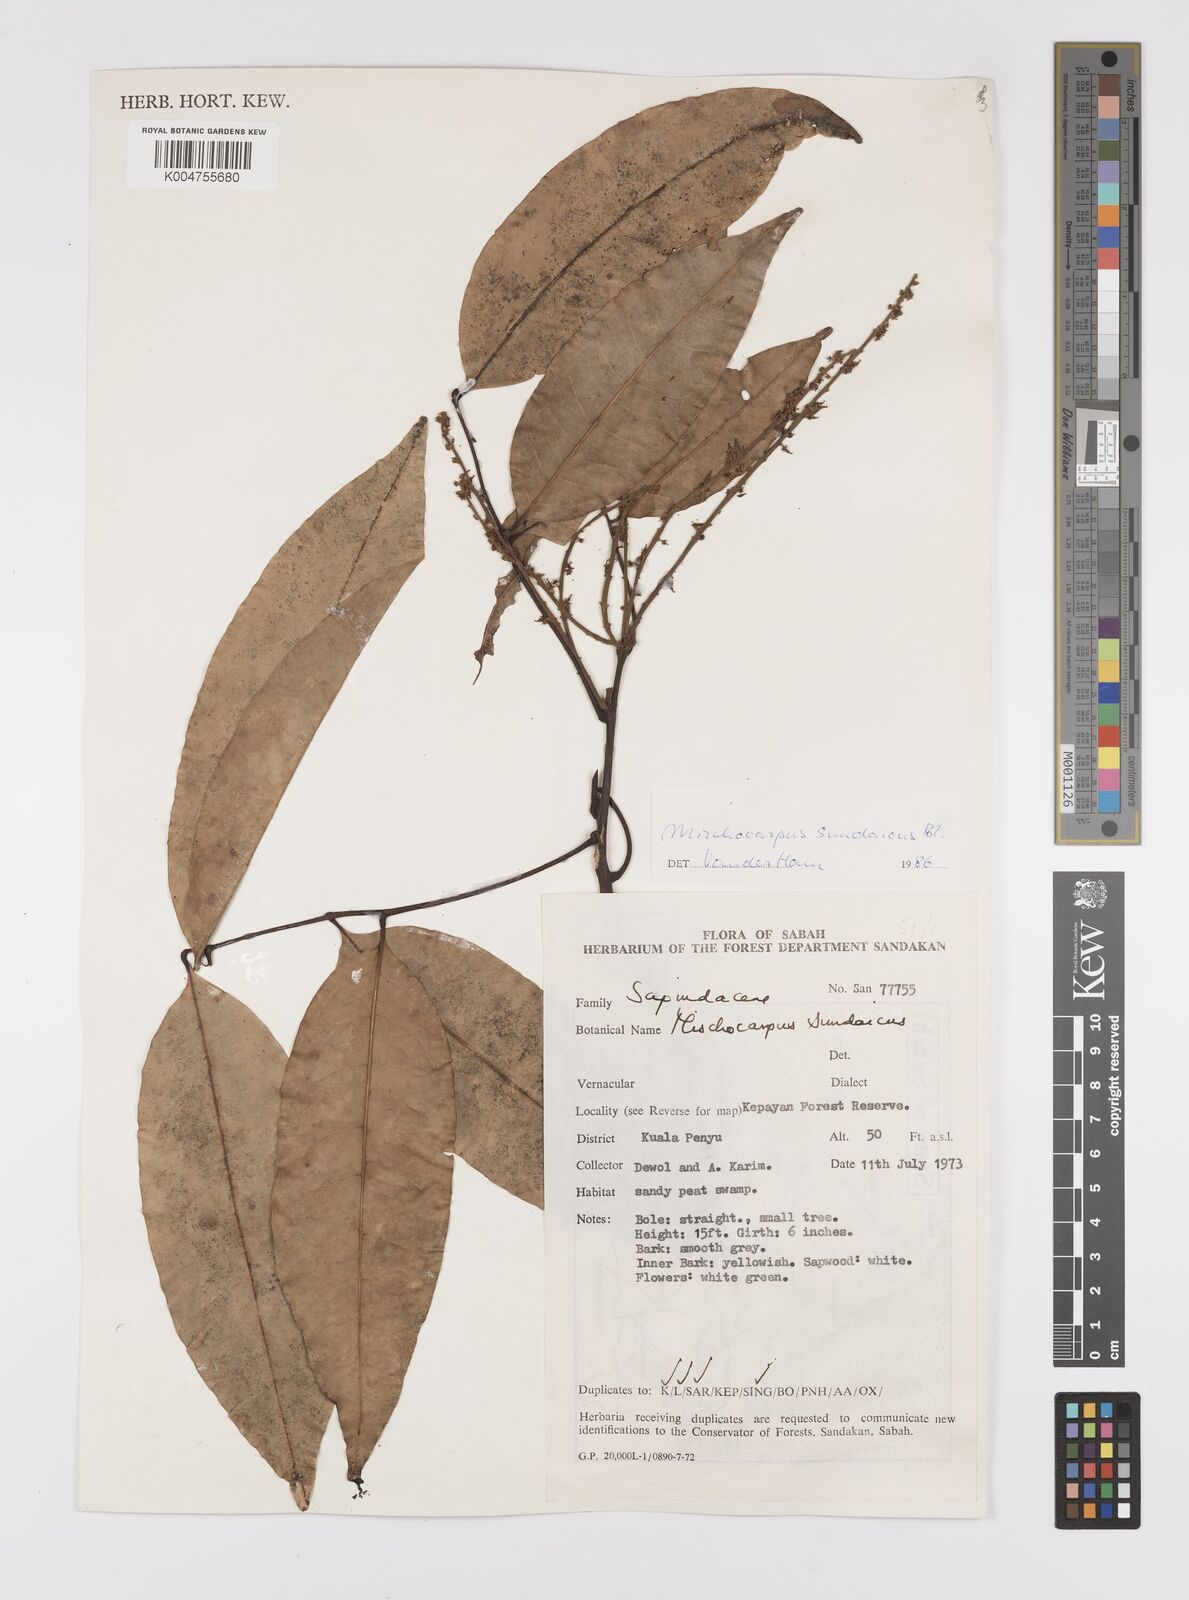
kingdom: Plantae
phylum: Tracheophyta
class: Magnoliopsida
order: Sapindales
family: Sapindaceae
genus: Mischocarpus
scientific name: Mischocarpus sundaicus
